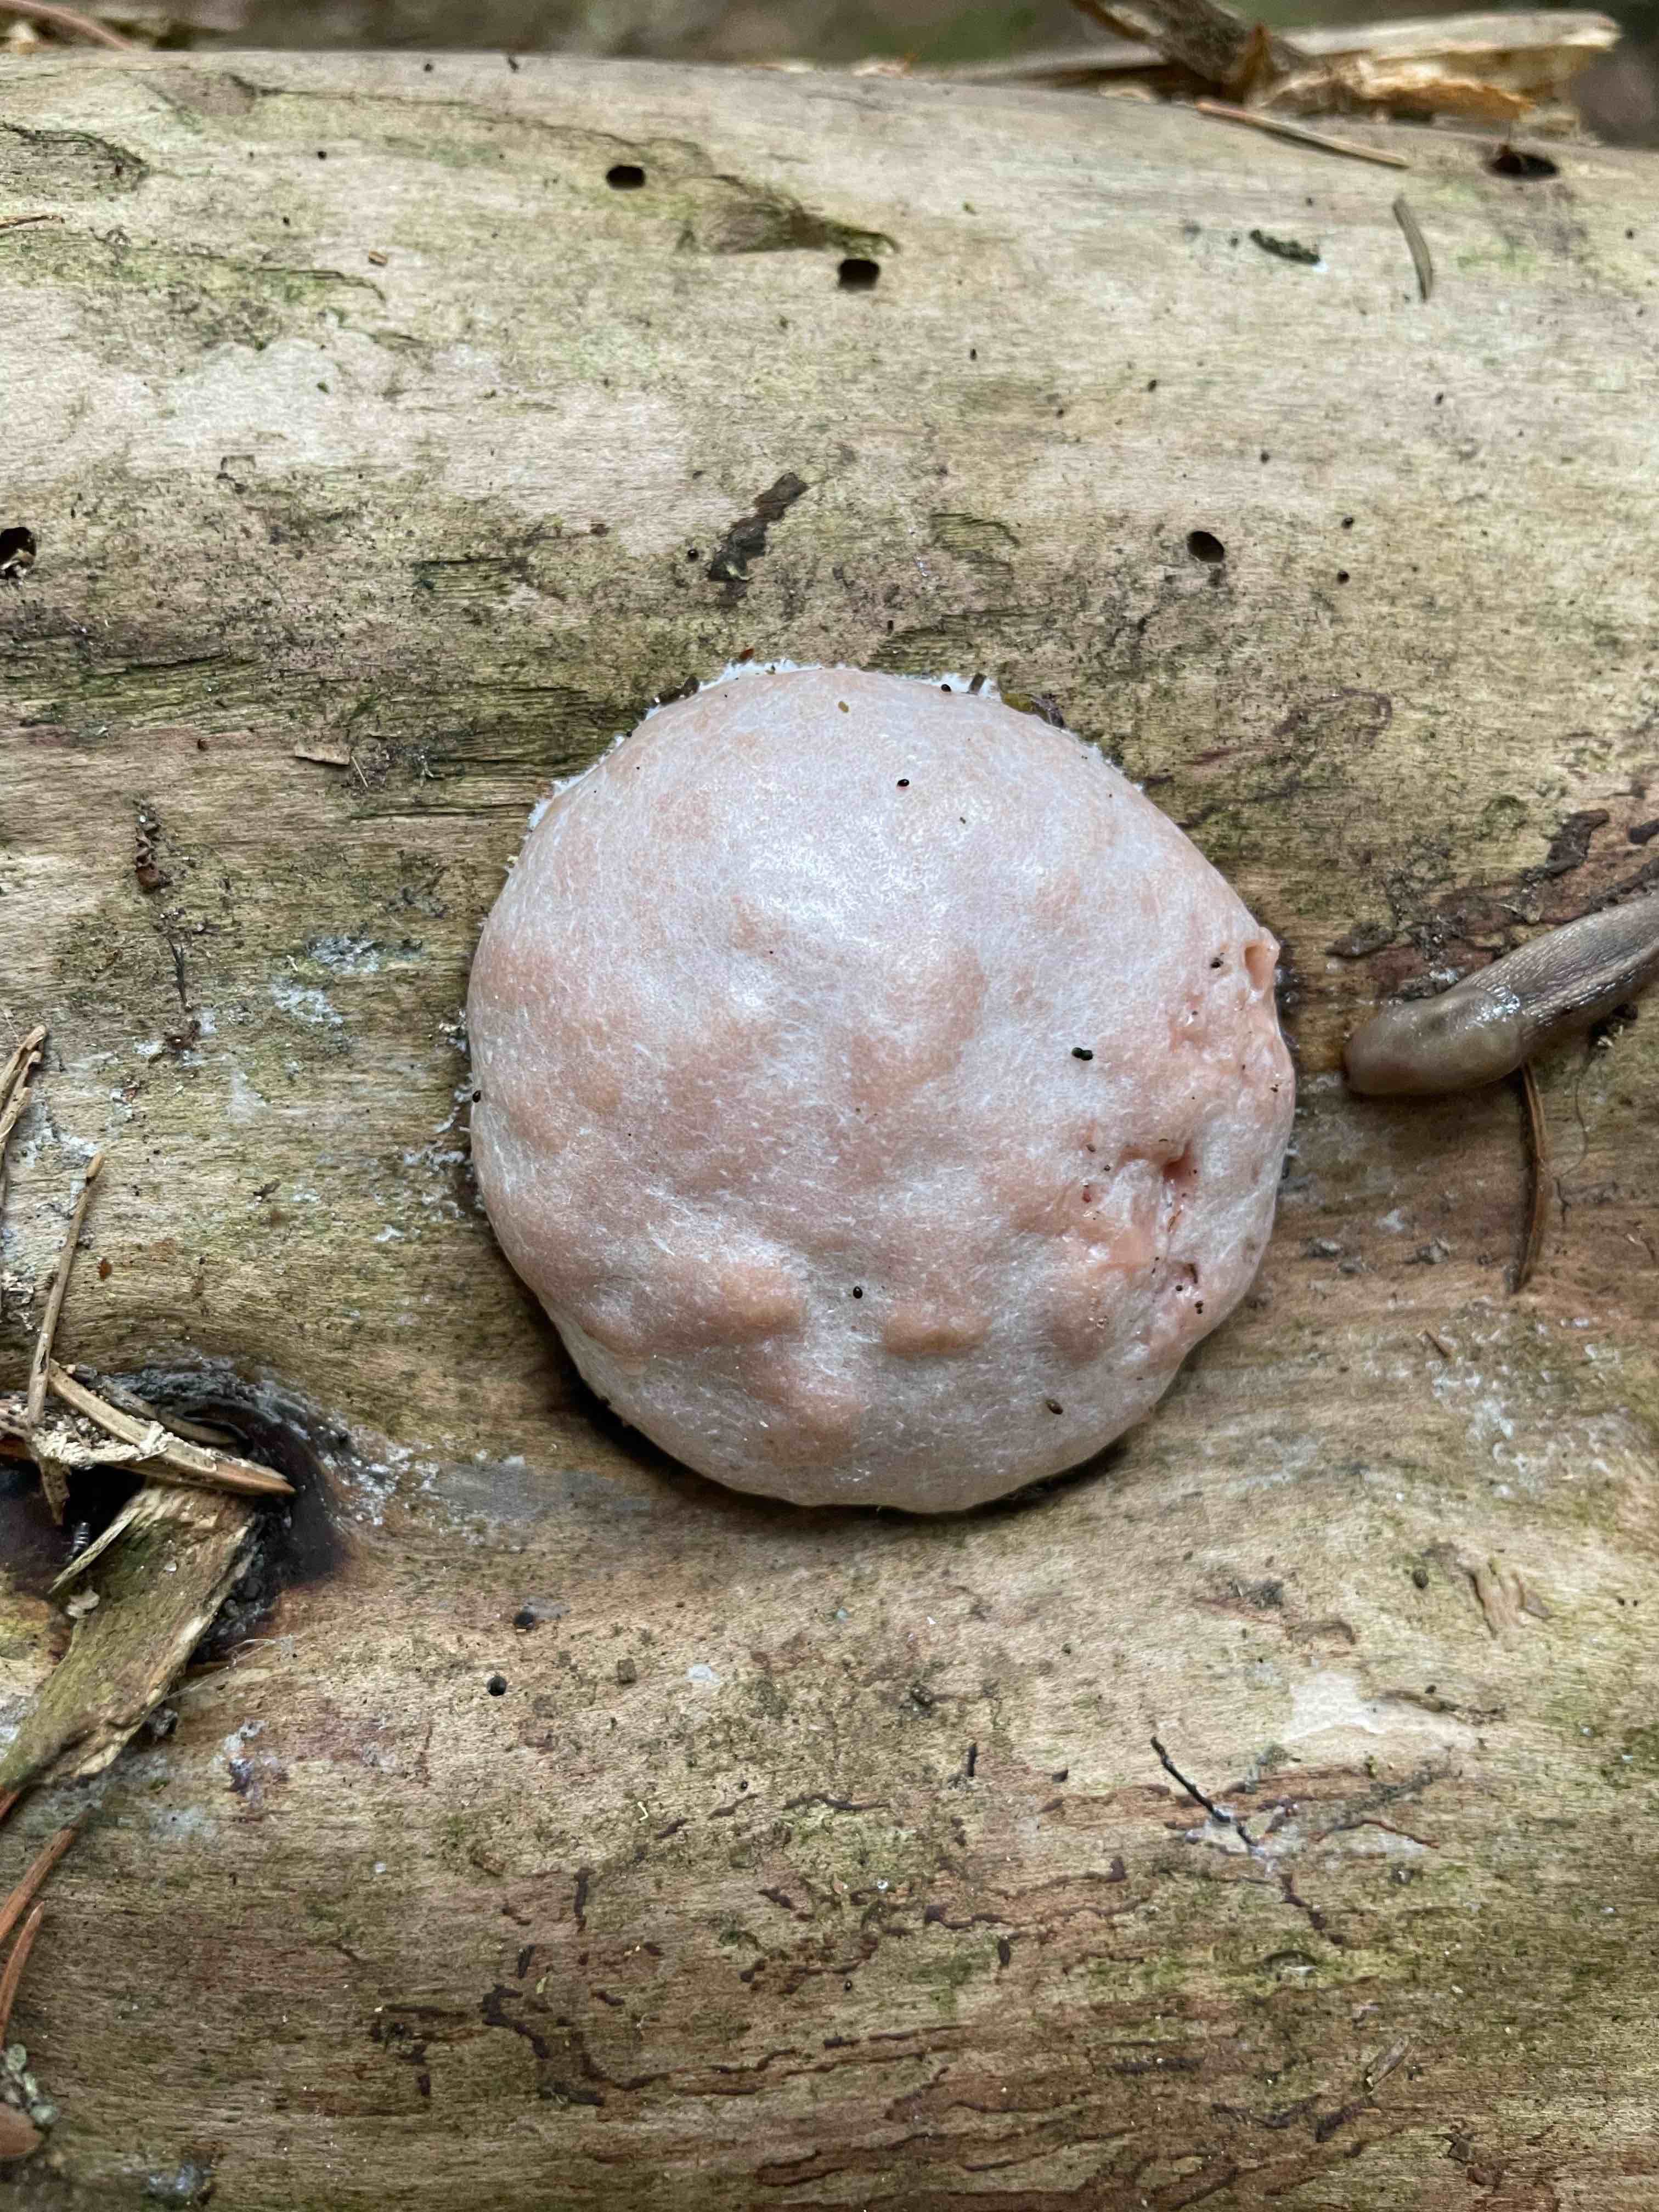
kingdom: Protozoa
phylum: Mycetozoa
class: Myxomycetes
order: Cribrariales
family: Tubiferaceae
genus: Reticularia
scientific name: Reticularia
